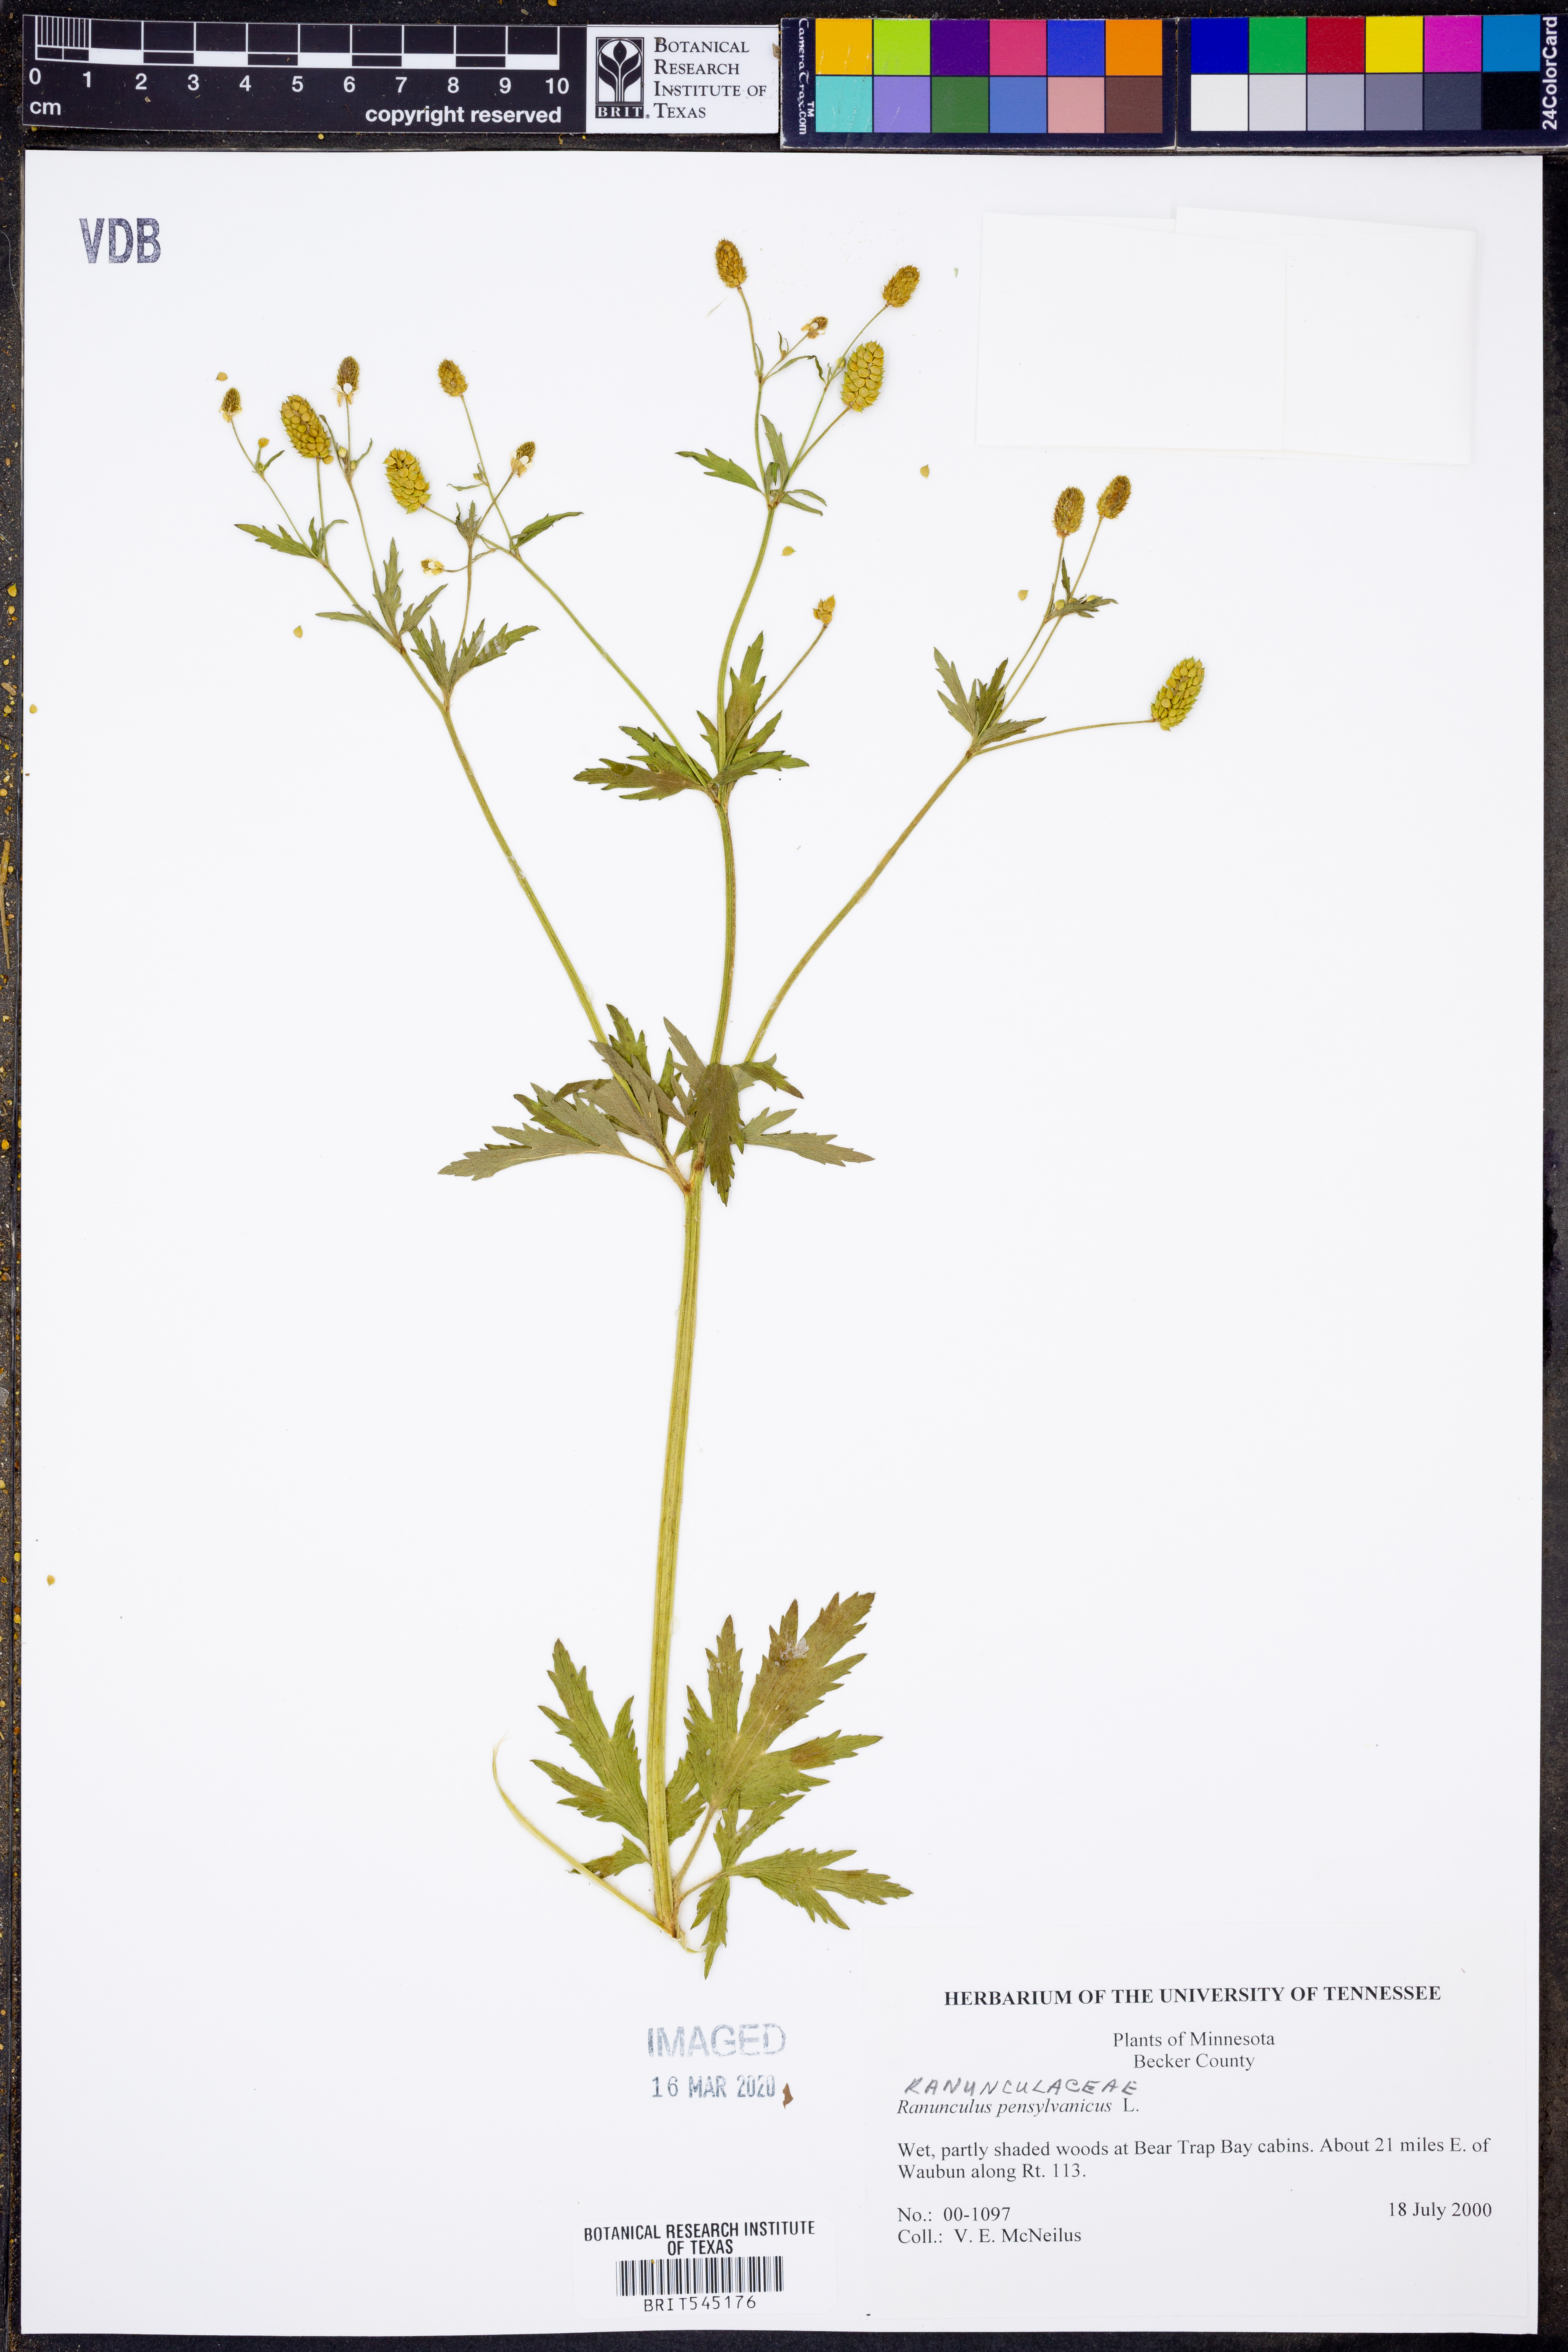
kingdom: Plantae
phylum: Tracheophyta
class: Magnoliopsida
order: Ranunculales
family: Ranunculaceae
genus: Ranunculus
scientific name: Ranunculus pensylvanicus
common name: Bristly buttercup
